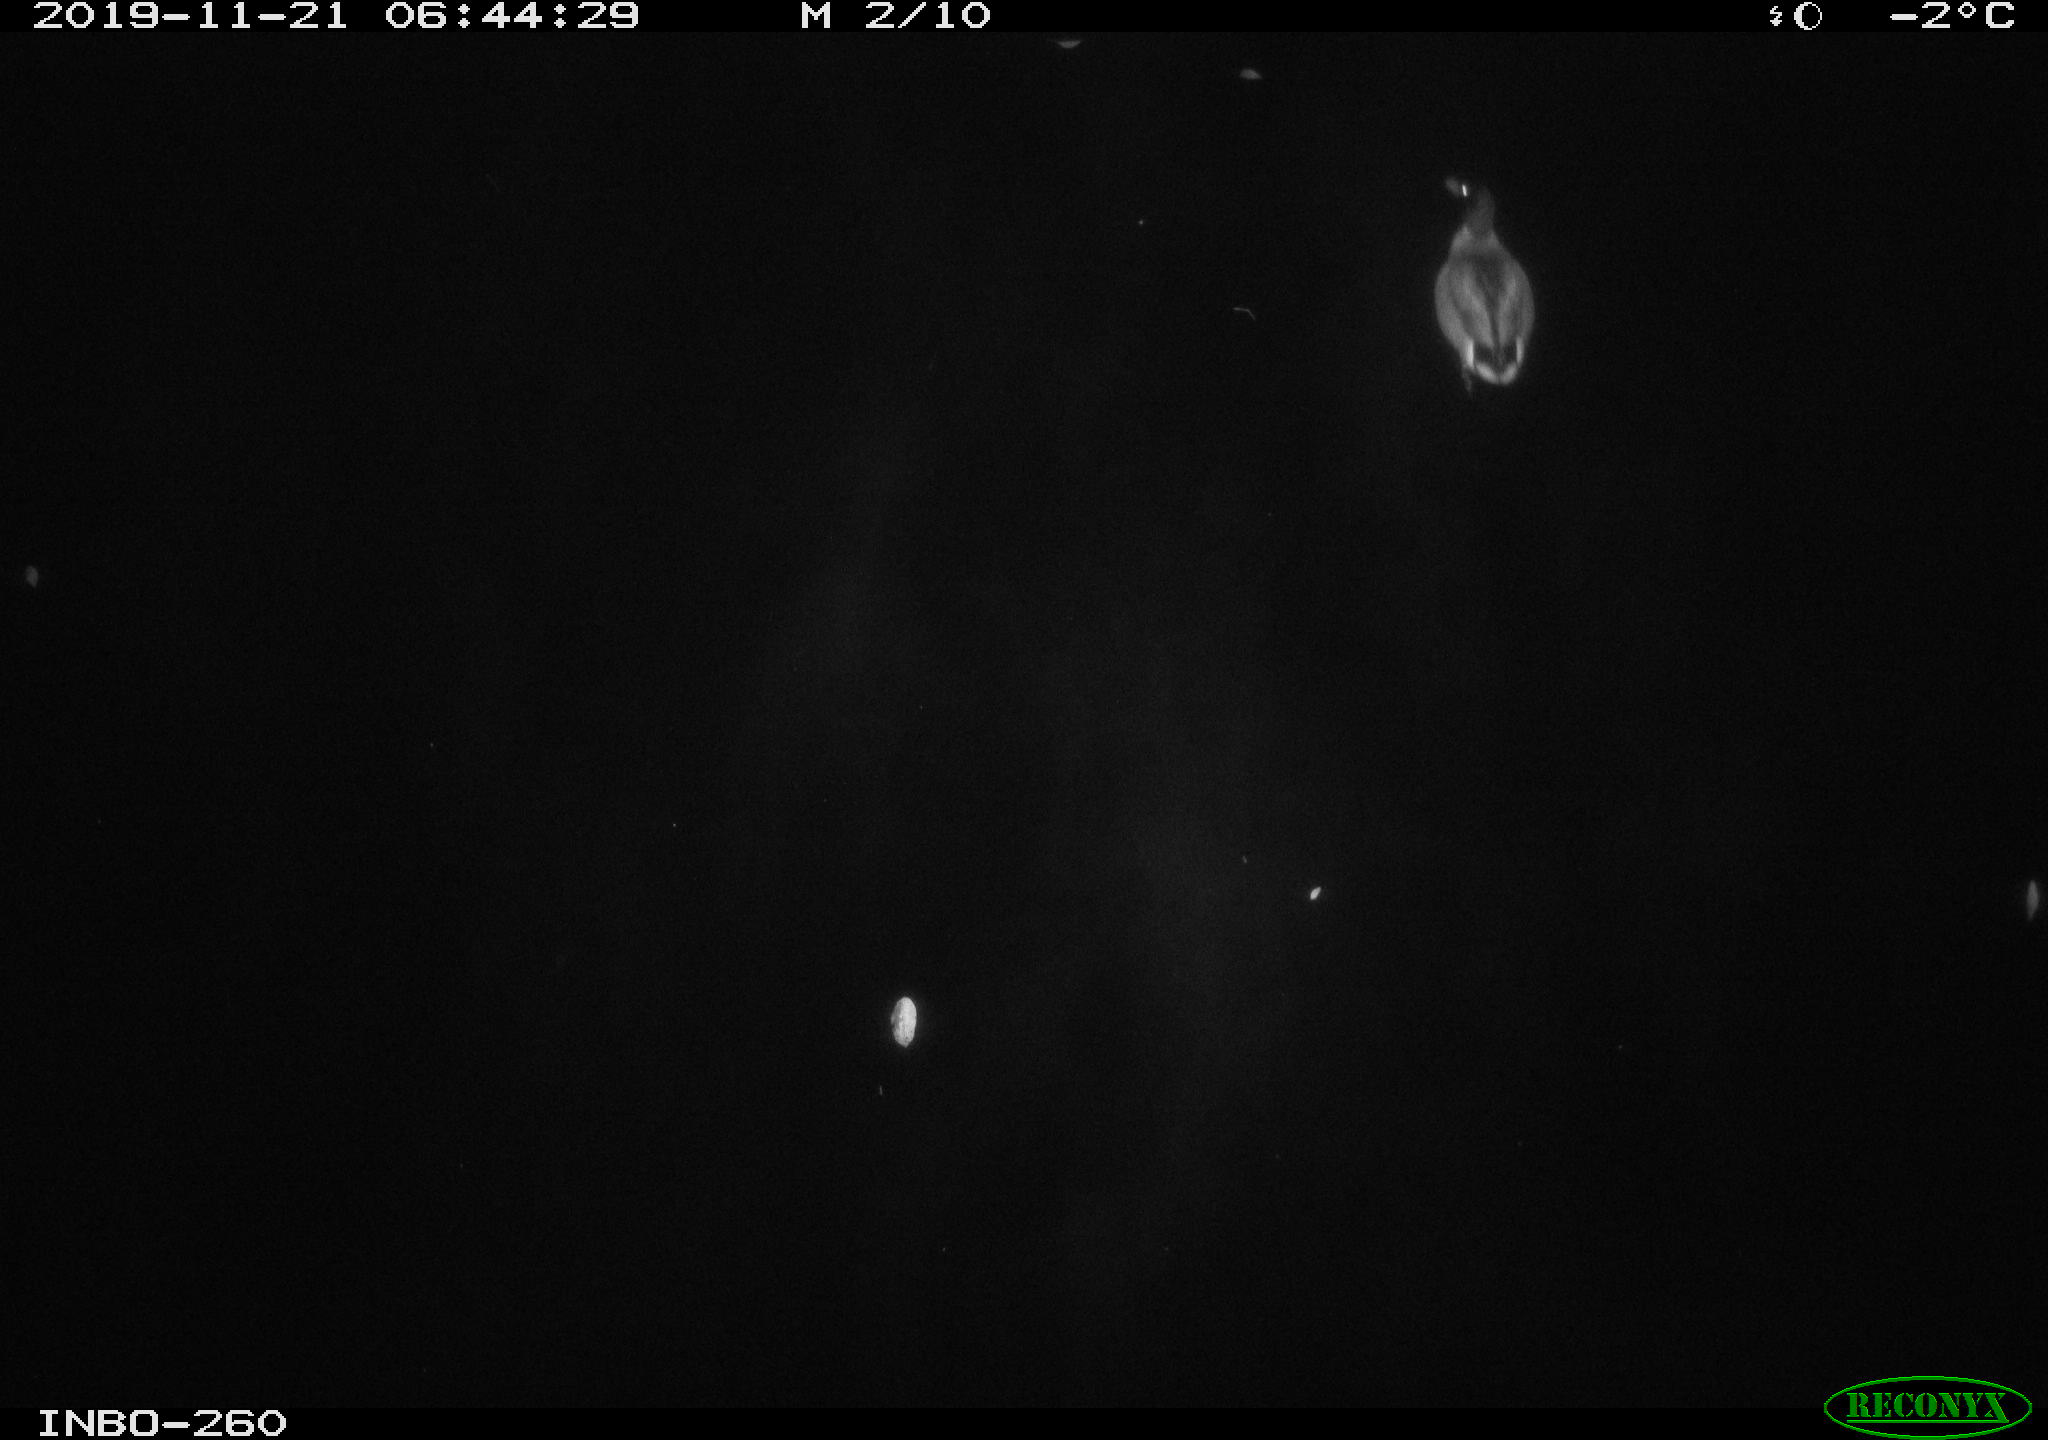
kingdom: Animalia
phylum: Chordata
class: Aves
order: Anseriformes
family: Anatidae
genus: Anas
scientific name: Anas platyrhynchos
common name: Mallard
